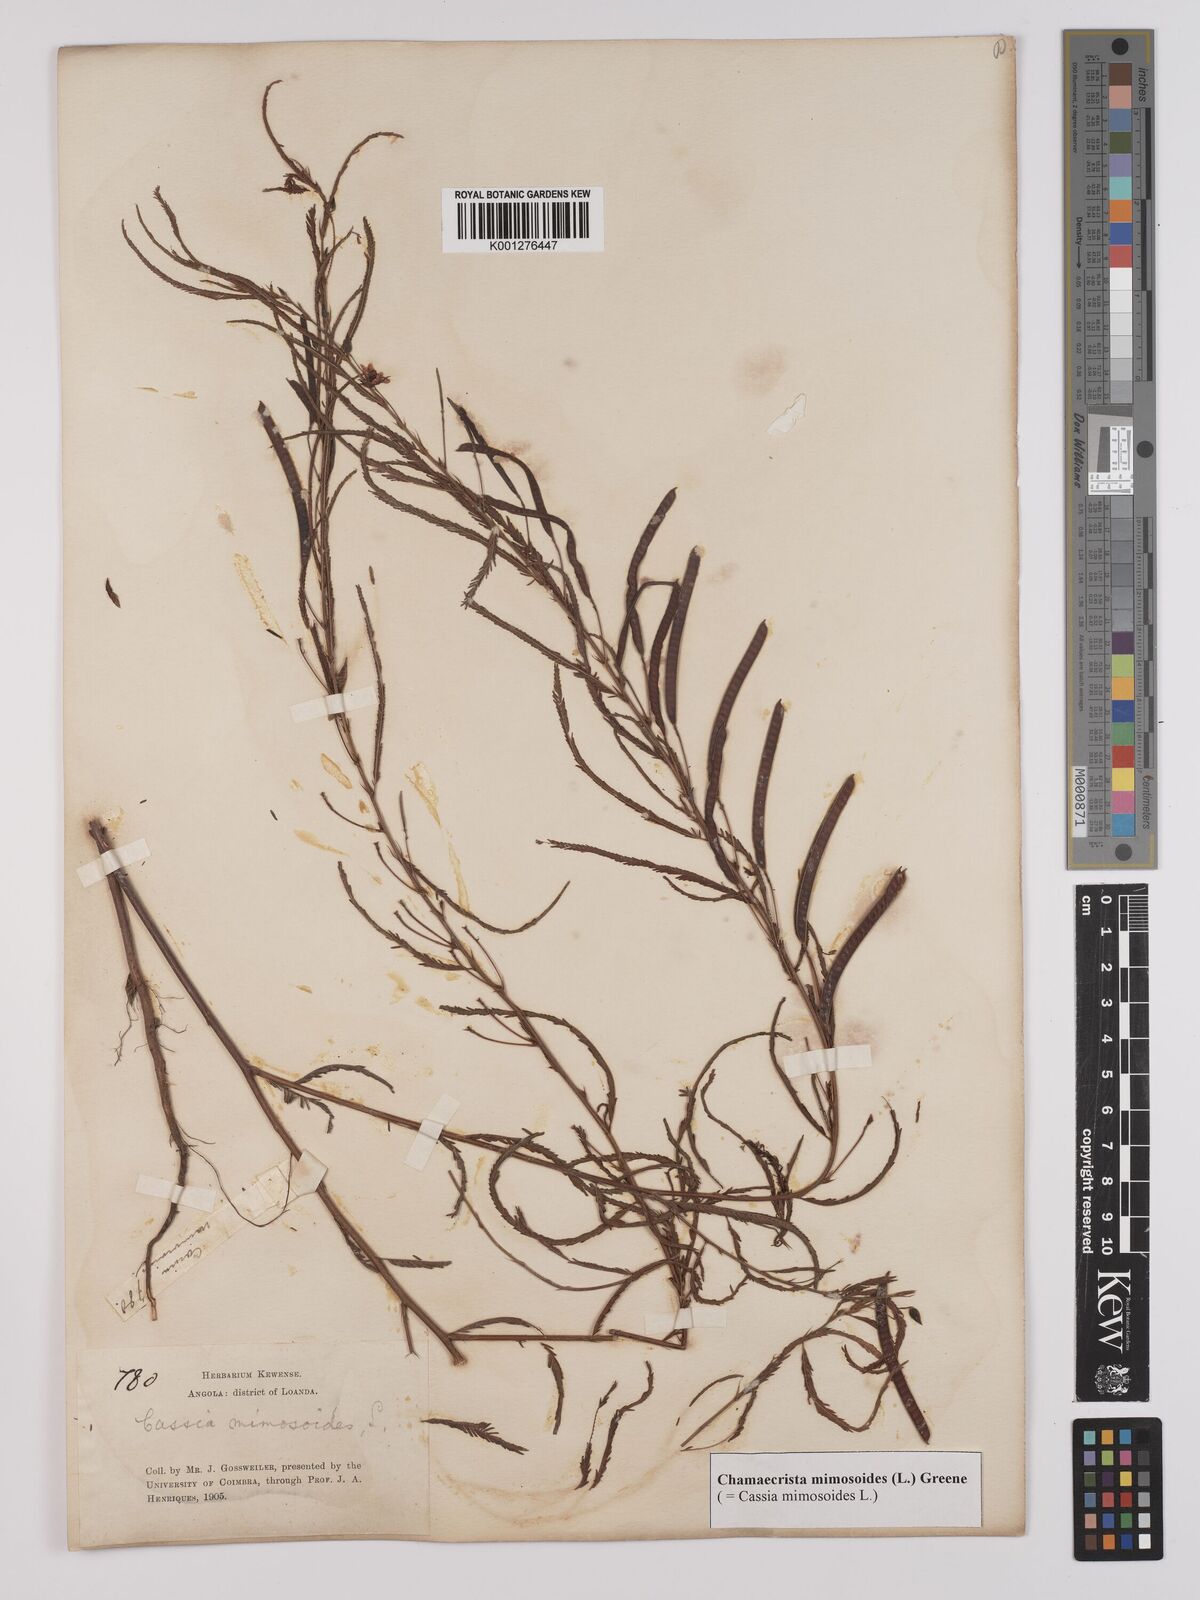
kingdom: Plantae
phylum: Tracheophyta
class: Magnoliopsida
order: Fabales
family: Fabaceae
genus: Chamaecrista
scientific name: Chamaecrista mimosoides
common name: Fish-bone cassia
